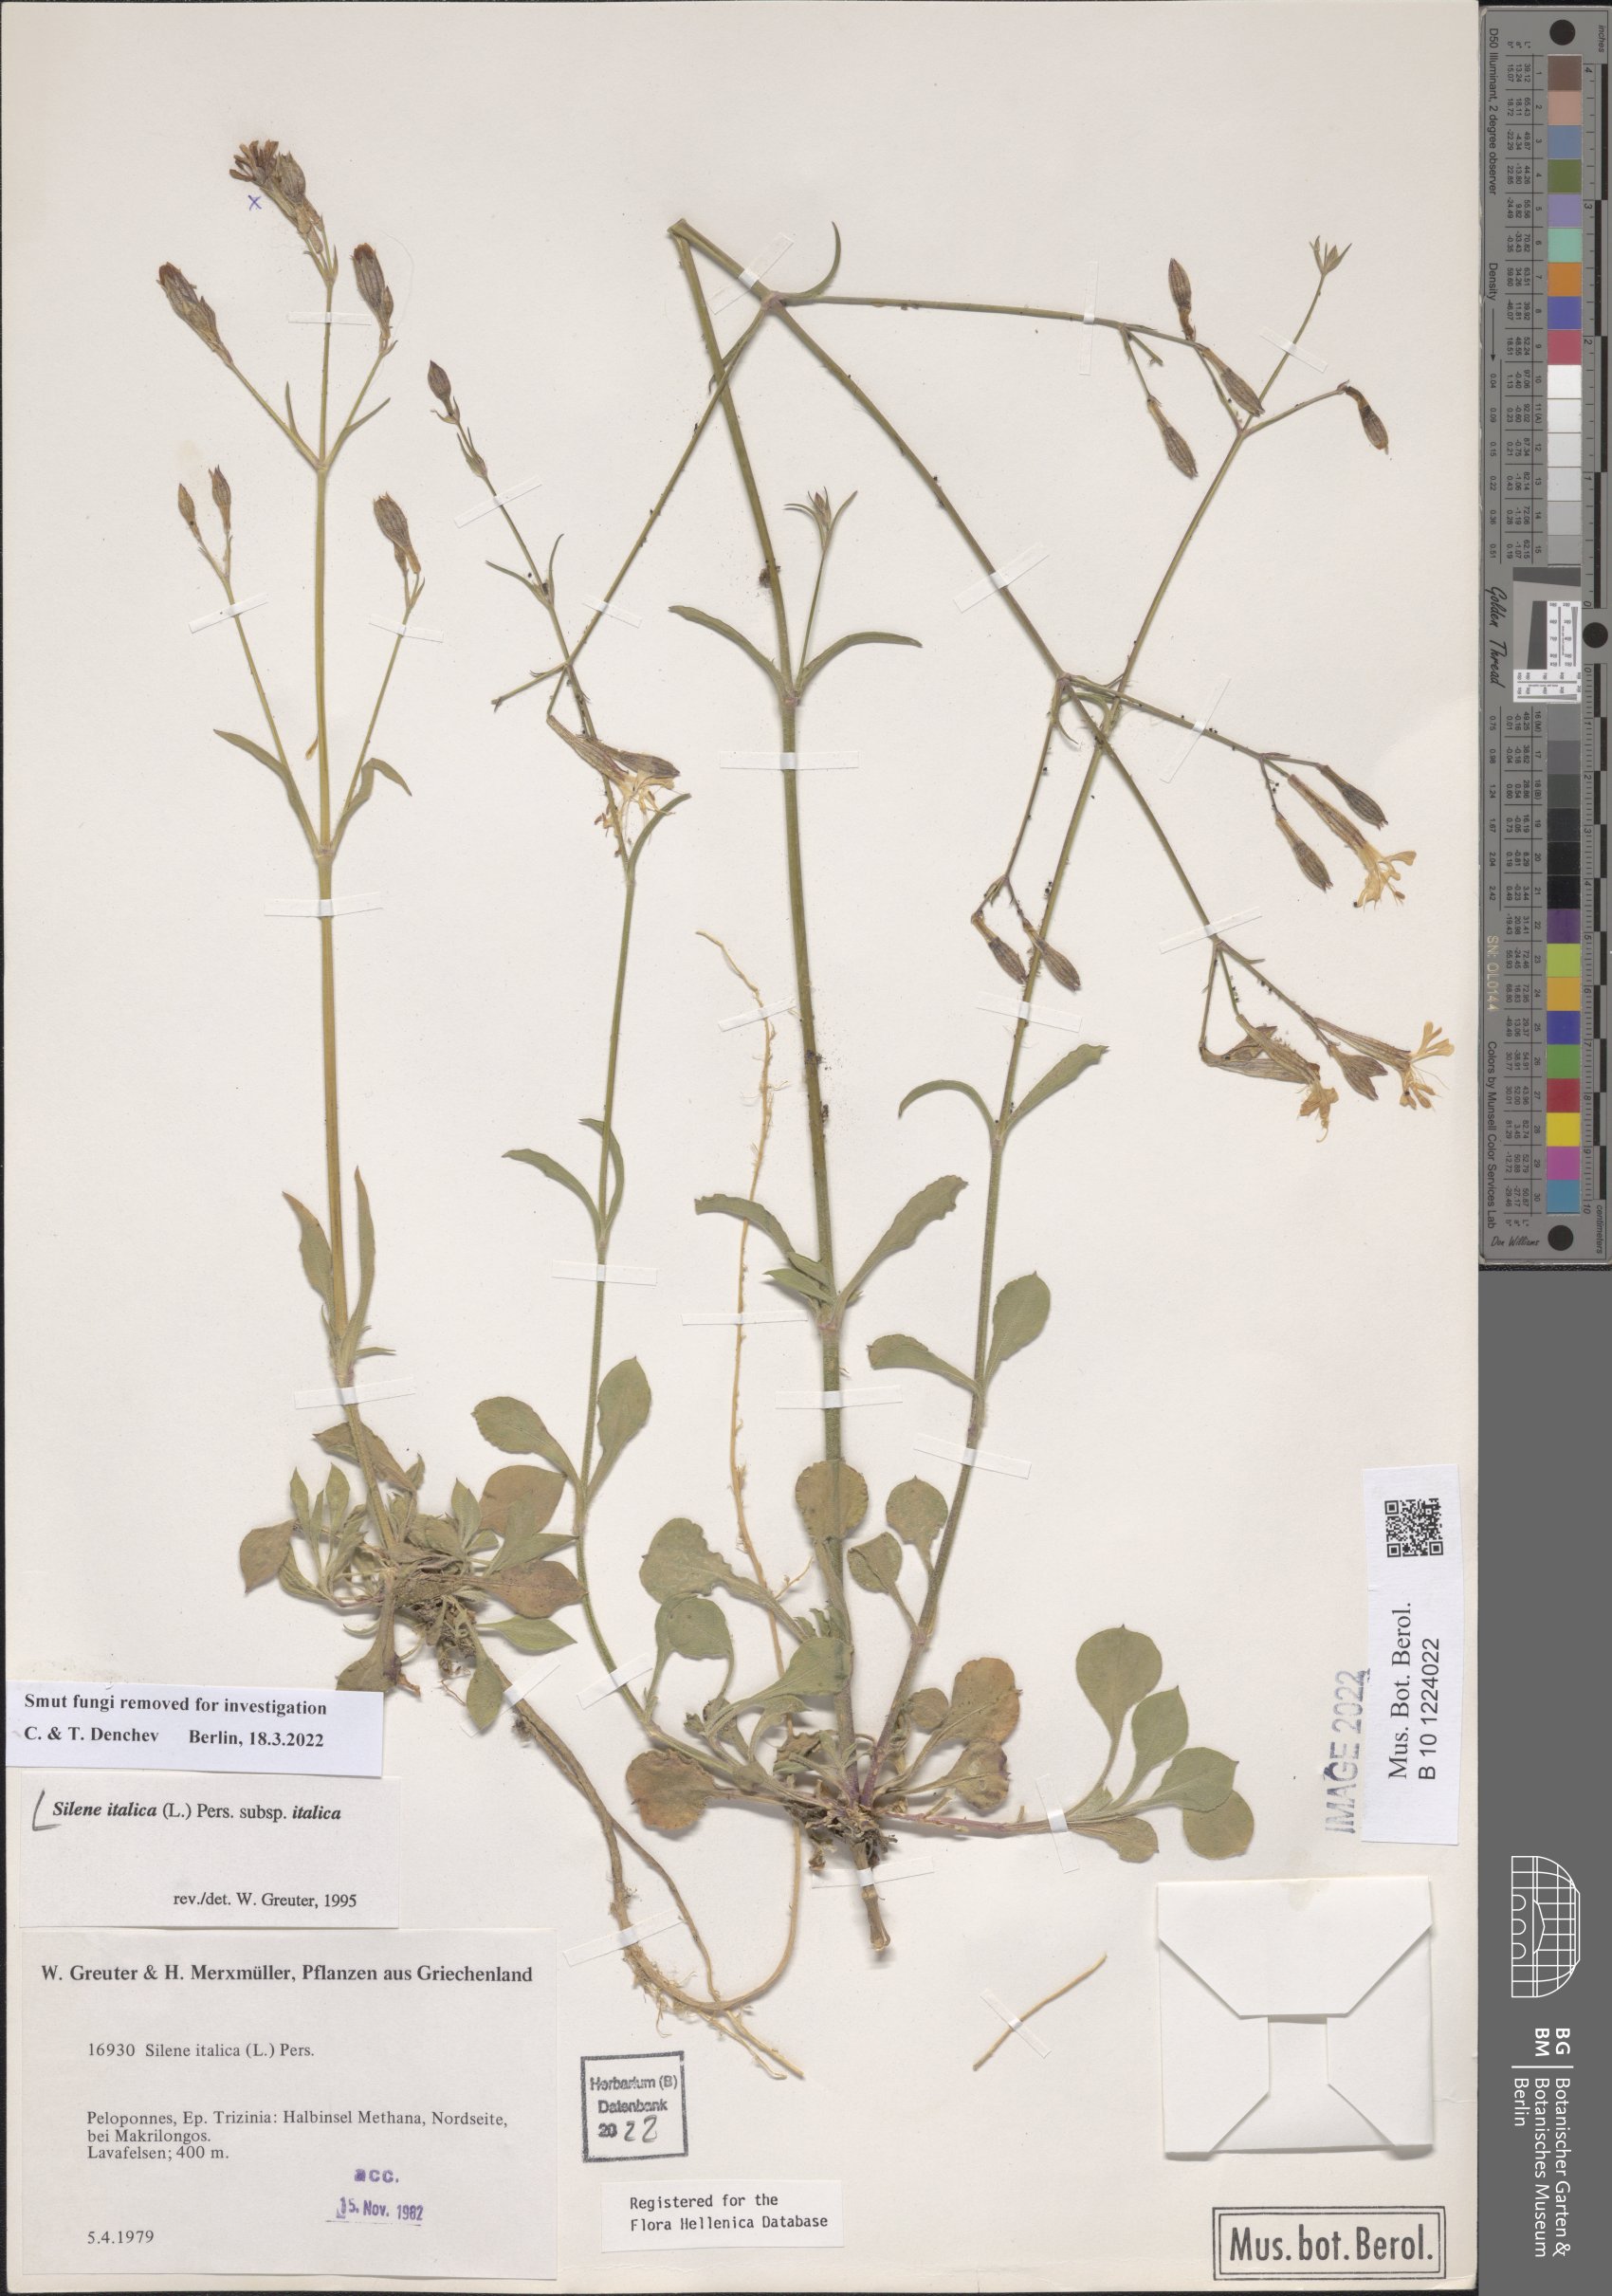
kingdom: Plantae
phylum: Tracheophyta
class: Magnoliopsida
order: Caryophyllales
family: Caryophyllaceae
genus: Silene
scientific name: Silene italica
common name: Italian catchfly
